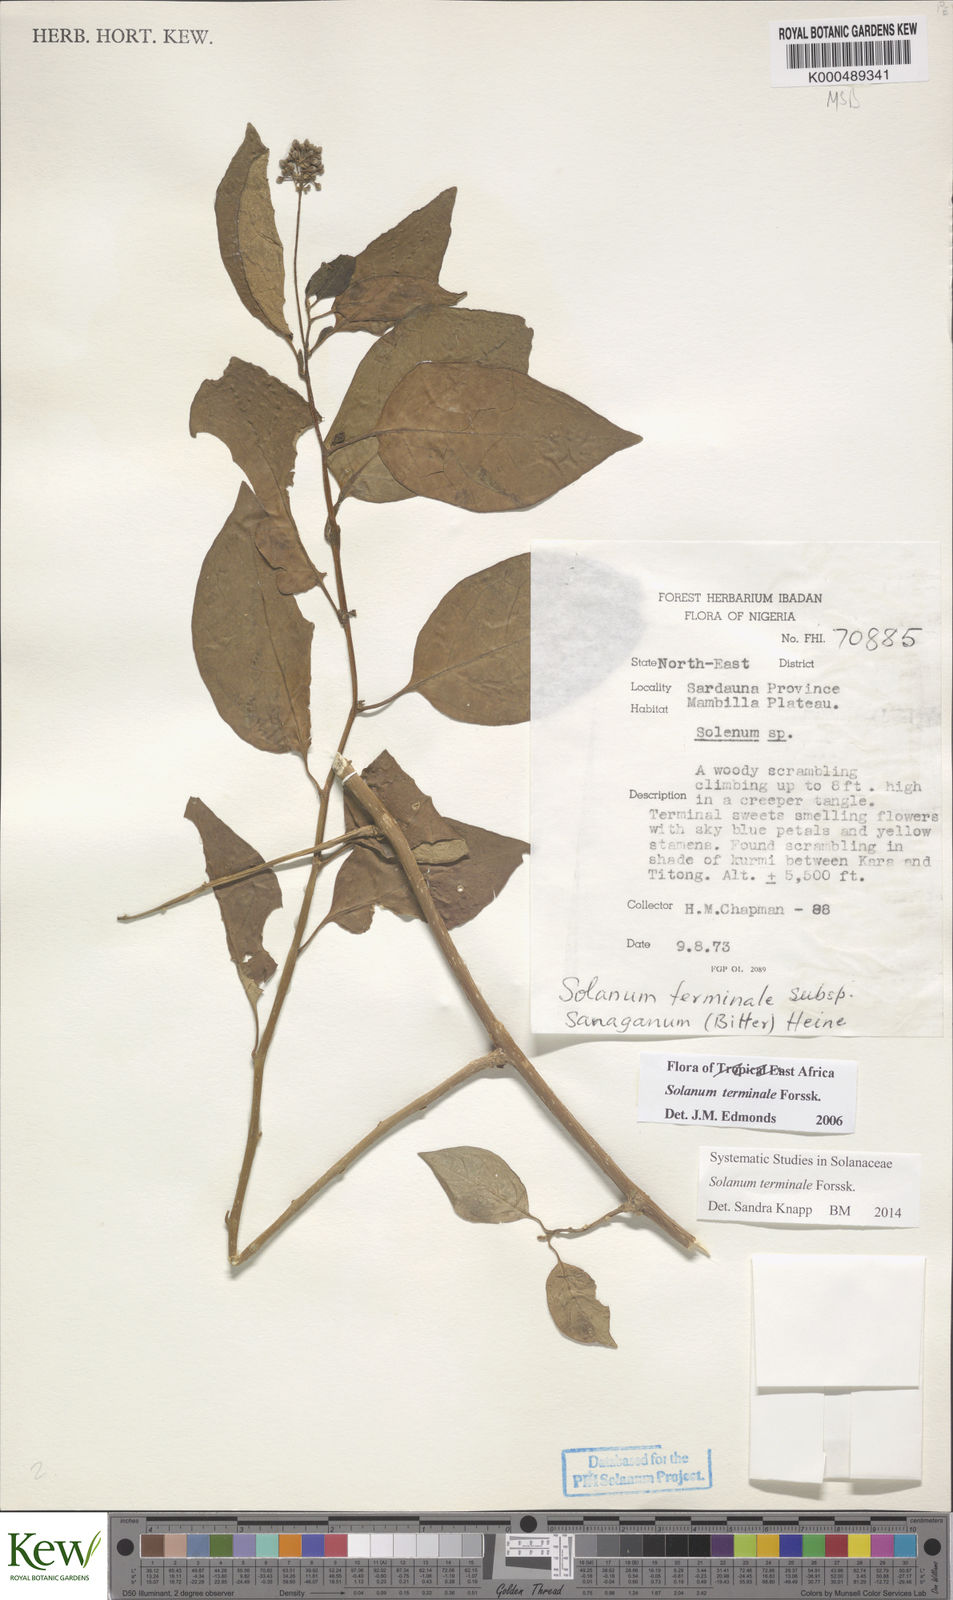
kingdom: Plantae
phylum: Tracheophyta
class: Magnoliopsida
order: Solanales
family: Solanaceae
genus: Solanum
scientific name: Solanum terminale
